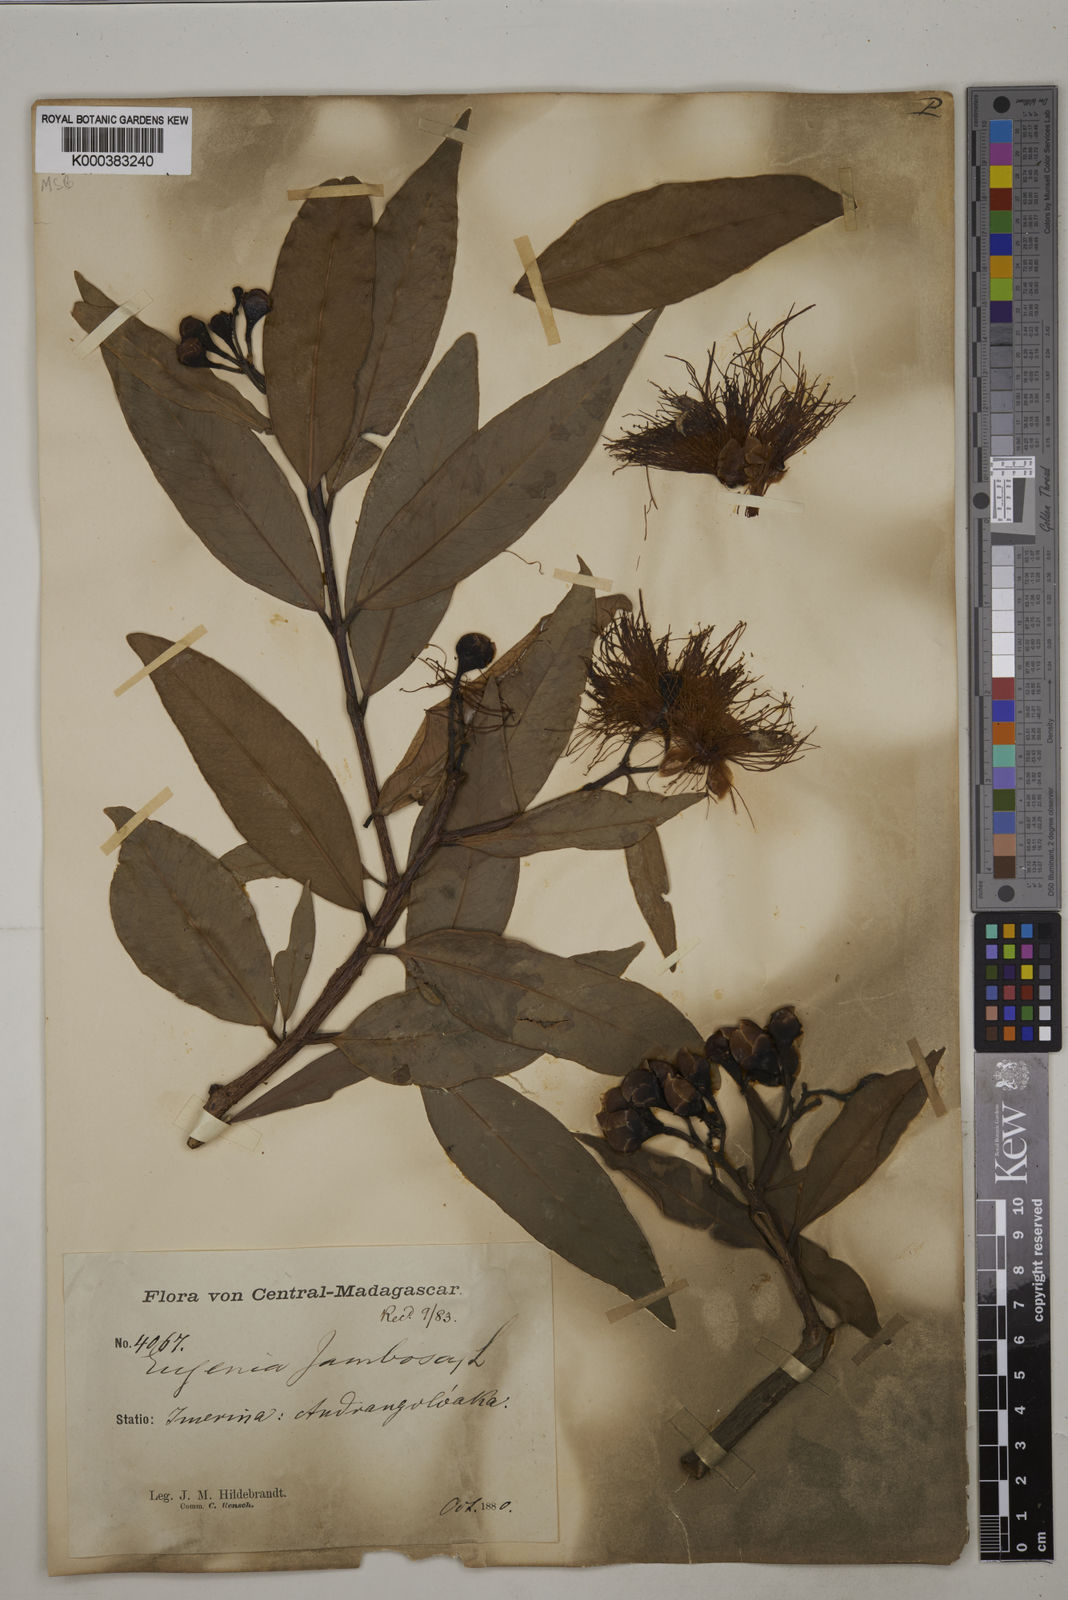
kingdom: Plantae
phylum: Tracheophyta
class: Magnoliopsida
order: Myrtales
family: Myrtaceae
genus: Syzygium
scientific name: Syzygium jambos
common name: Malabar plum
